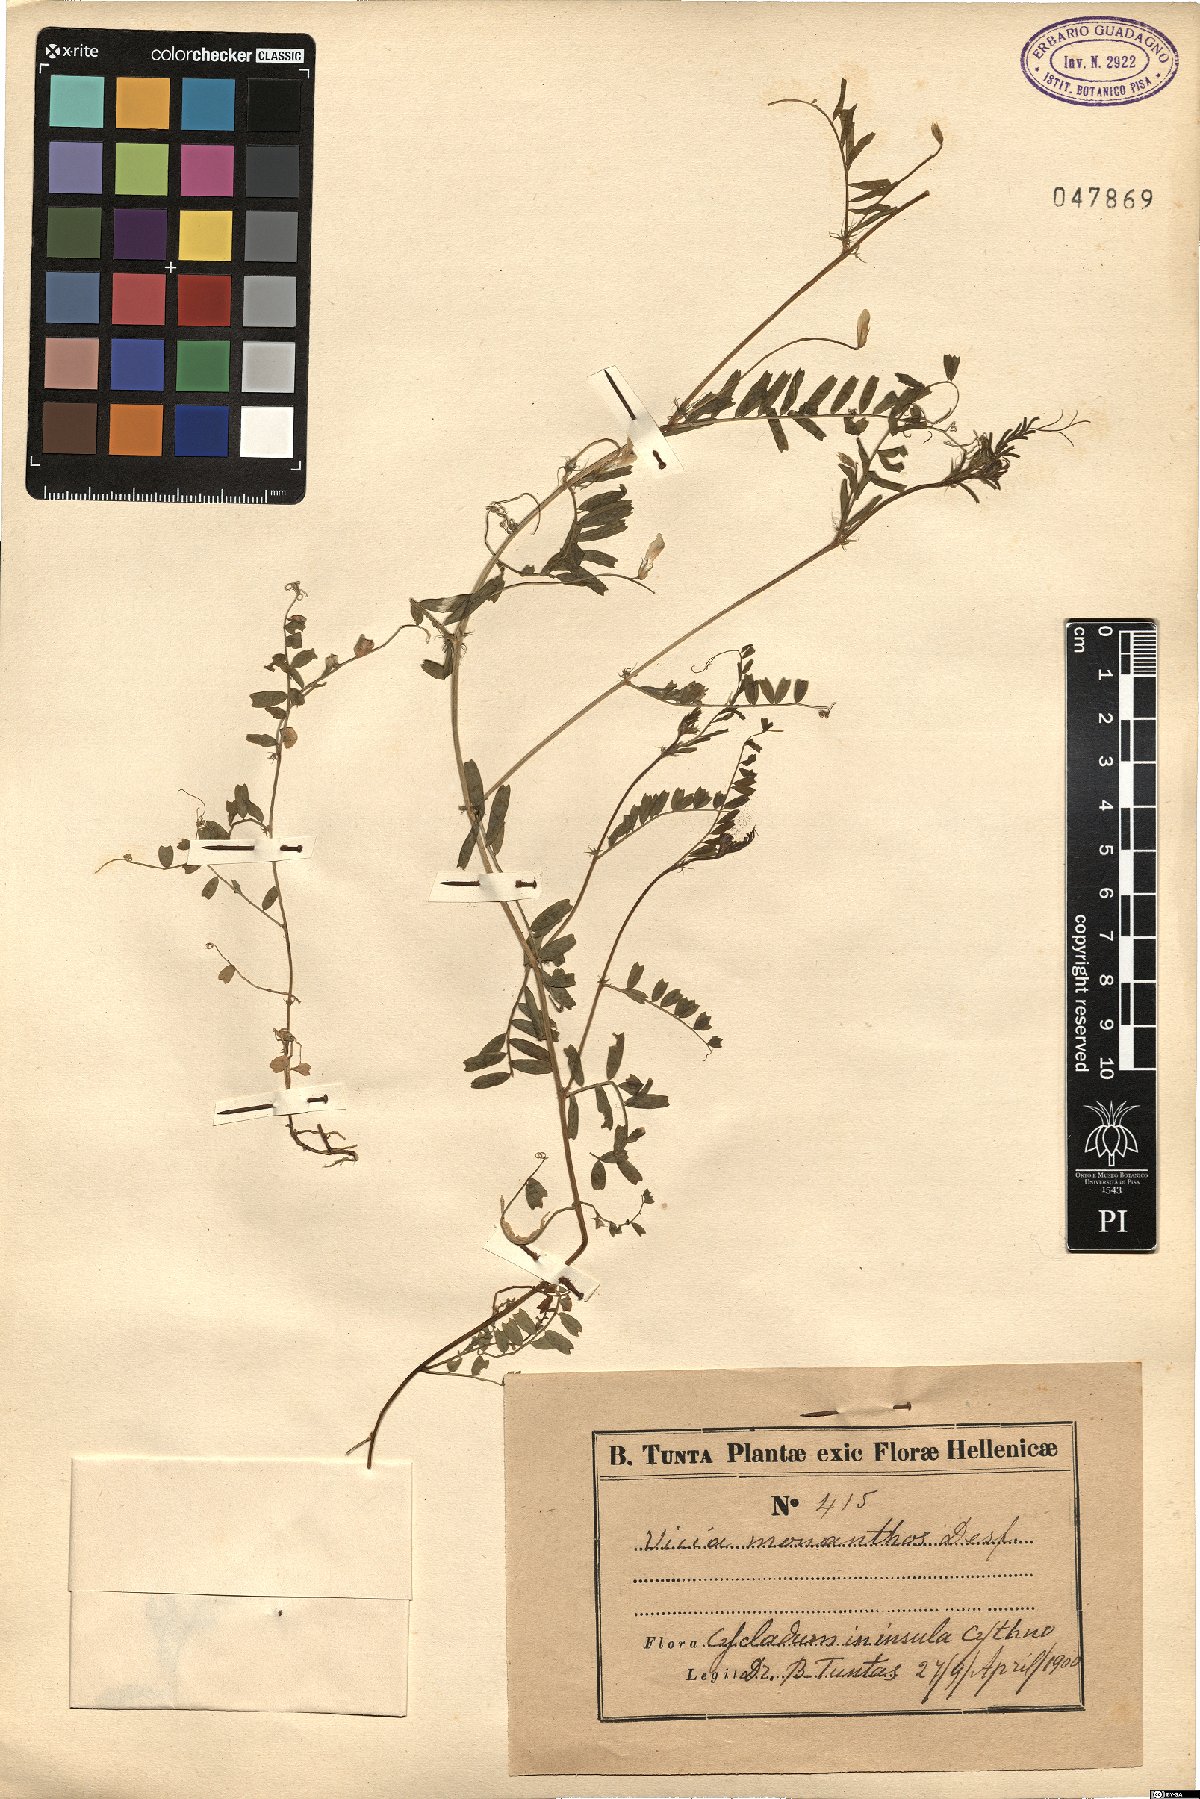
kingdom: Plantae
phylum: Tracheophyta
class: Magnoliopsida
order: Fabales
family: Fabaceae
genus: Vicia
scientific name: Vicia monantha
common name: Barn vetch
